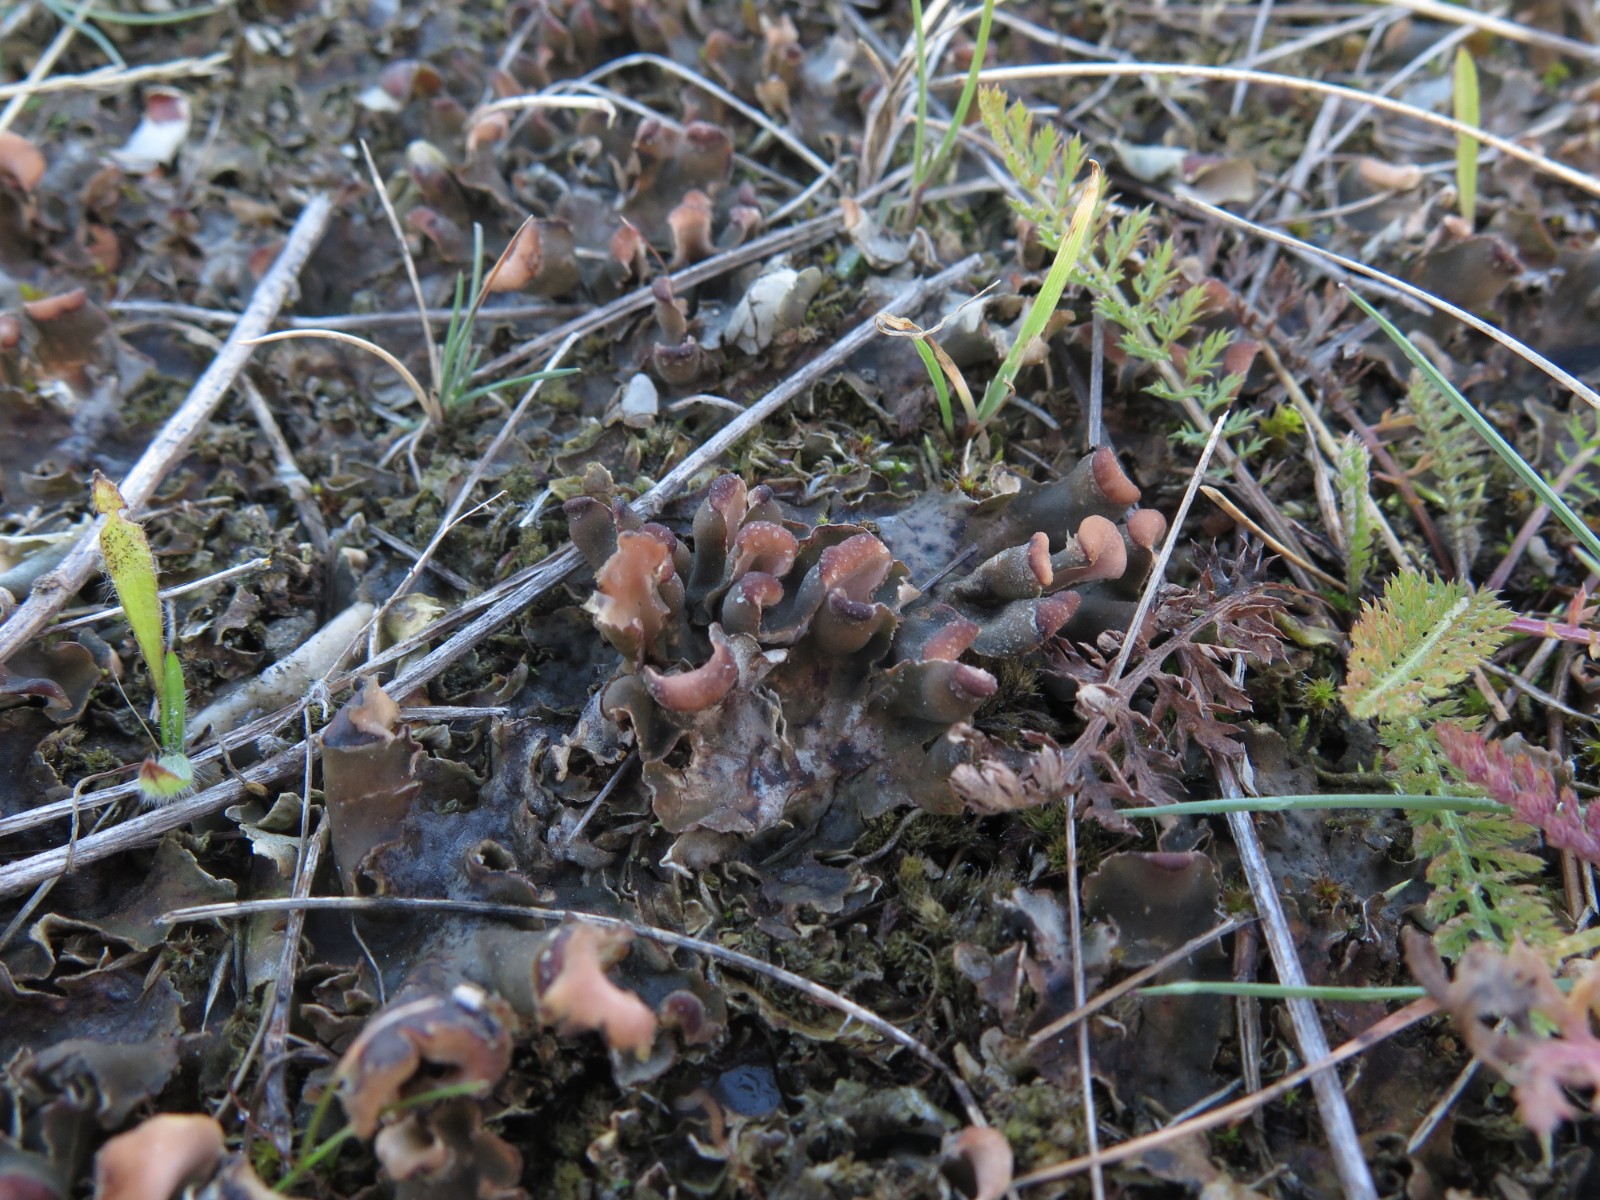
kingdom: Fungi
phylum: Ascomycota
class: Lecanoromycetes
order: Peltigerales
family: Peltigeraceae
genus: Peltigera
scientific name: Peltigera rufescens
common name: brun skjoldlav
